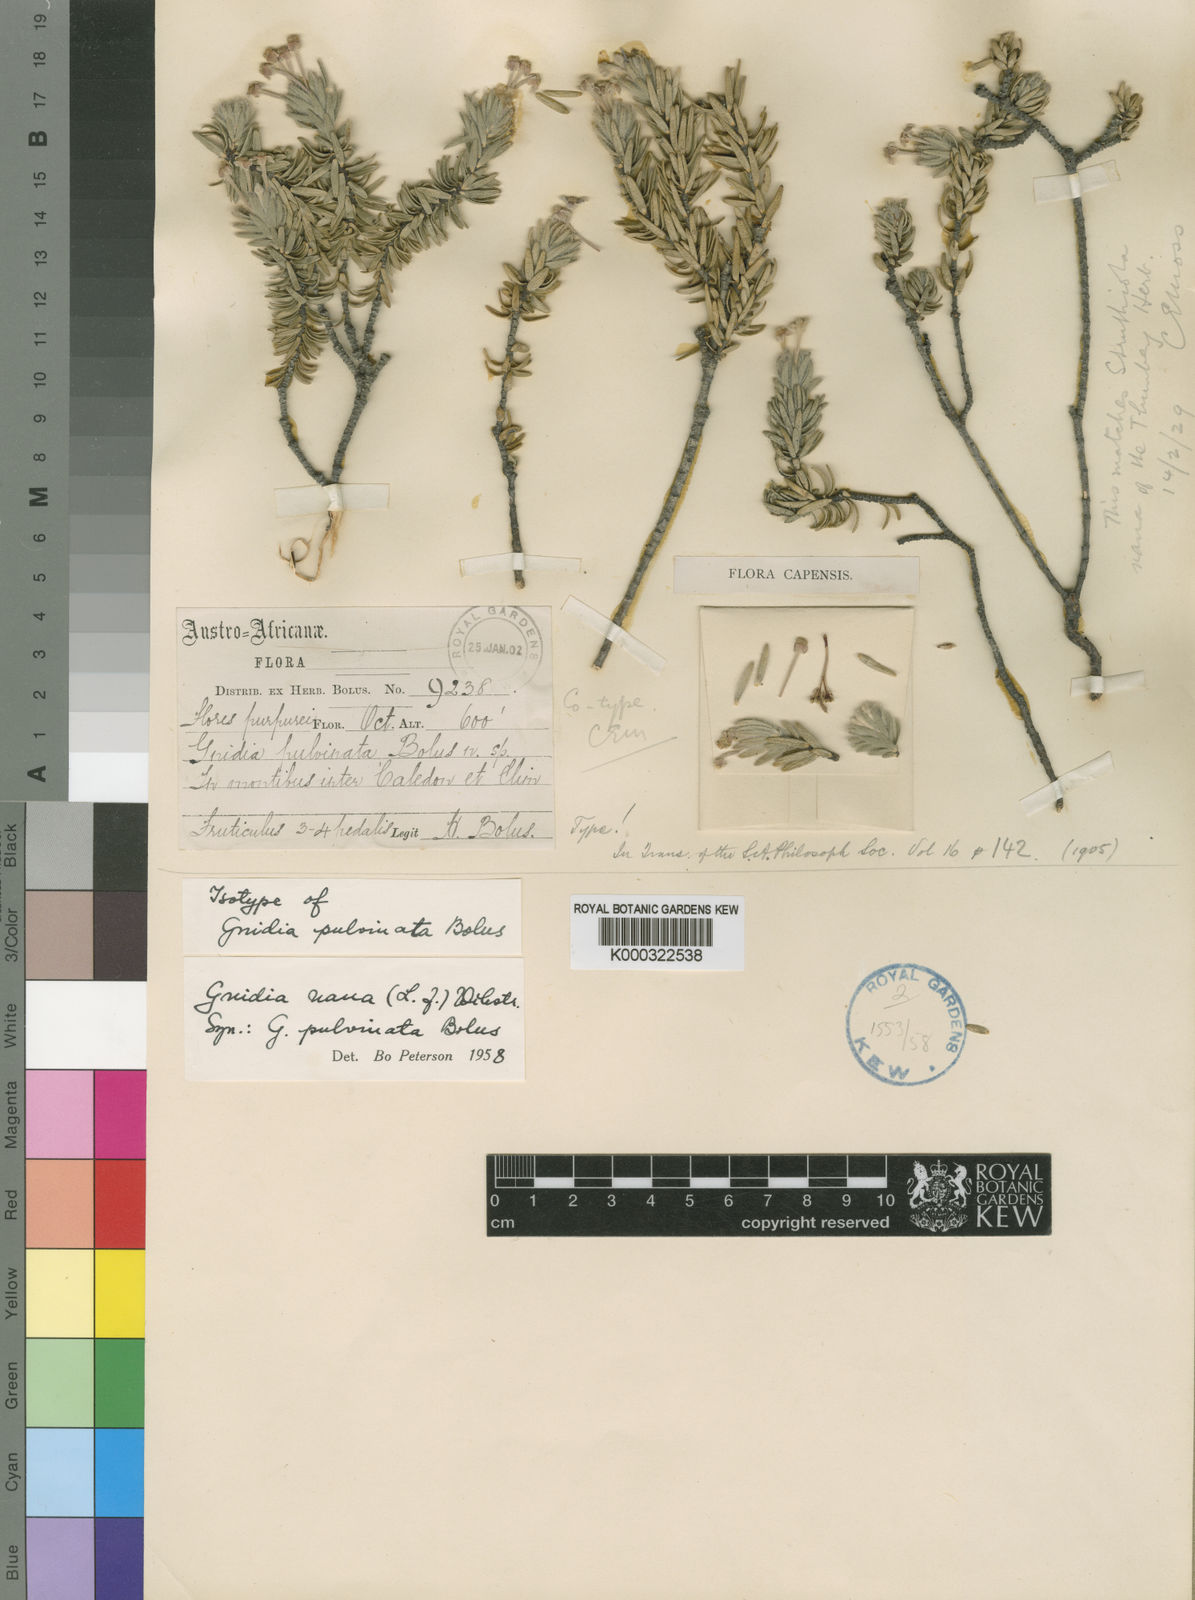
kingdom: Plantae
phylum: Tracheophyta
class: Magnoliopsida
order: Malvales
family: Thymelaeaceae
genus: Gnidia
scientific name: Gnidia nana
